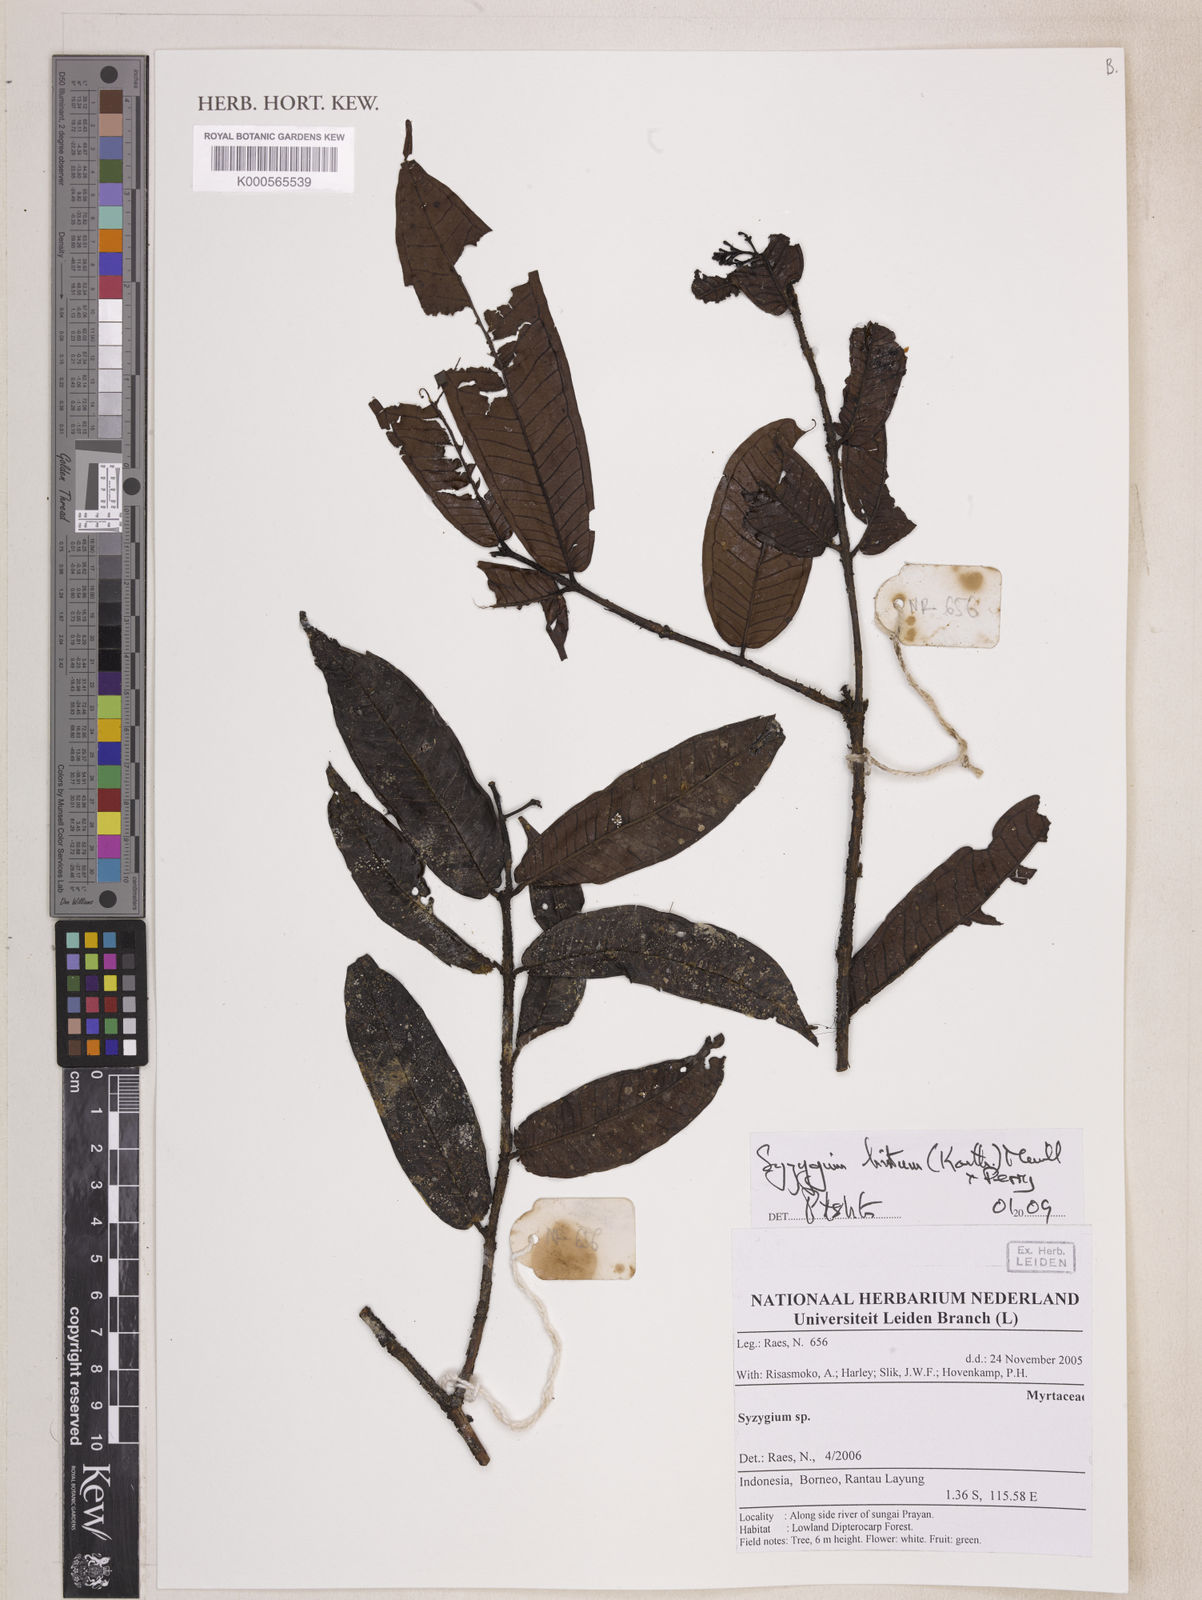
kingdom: Plantae
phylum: Tracheophyta
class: Magnoliopsida
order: Myrtales
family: Myrtaceae
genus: Syzygium
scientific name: Syzygium hirtum
